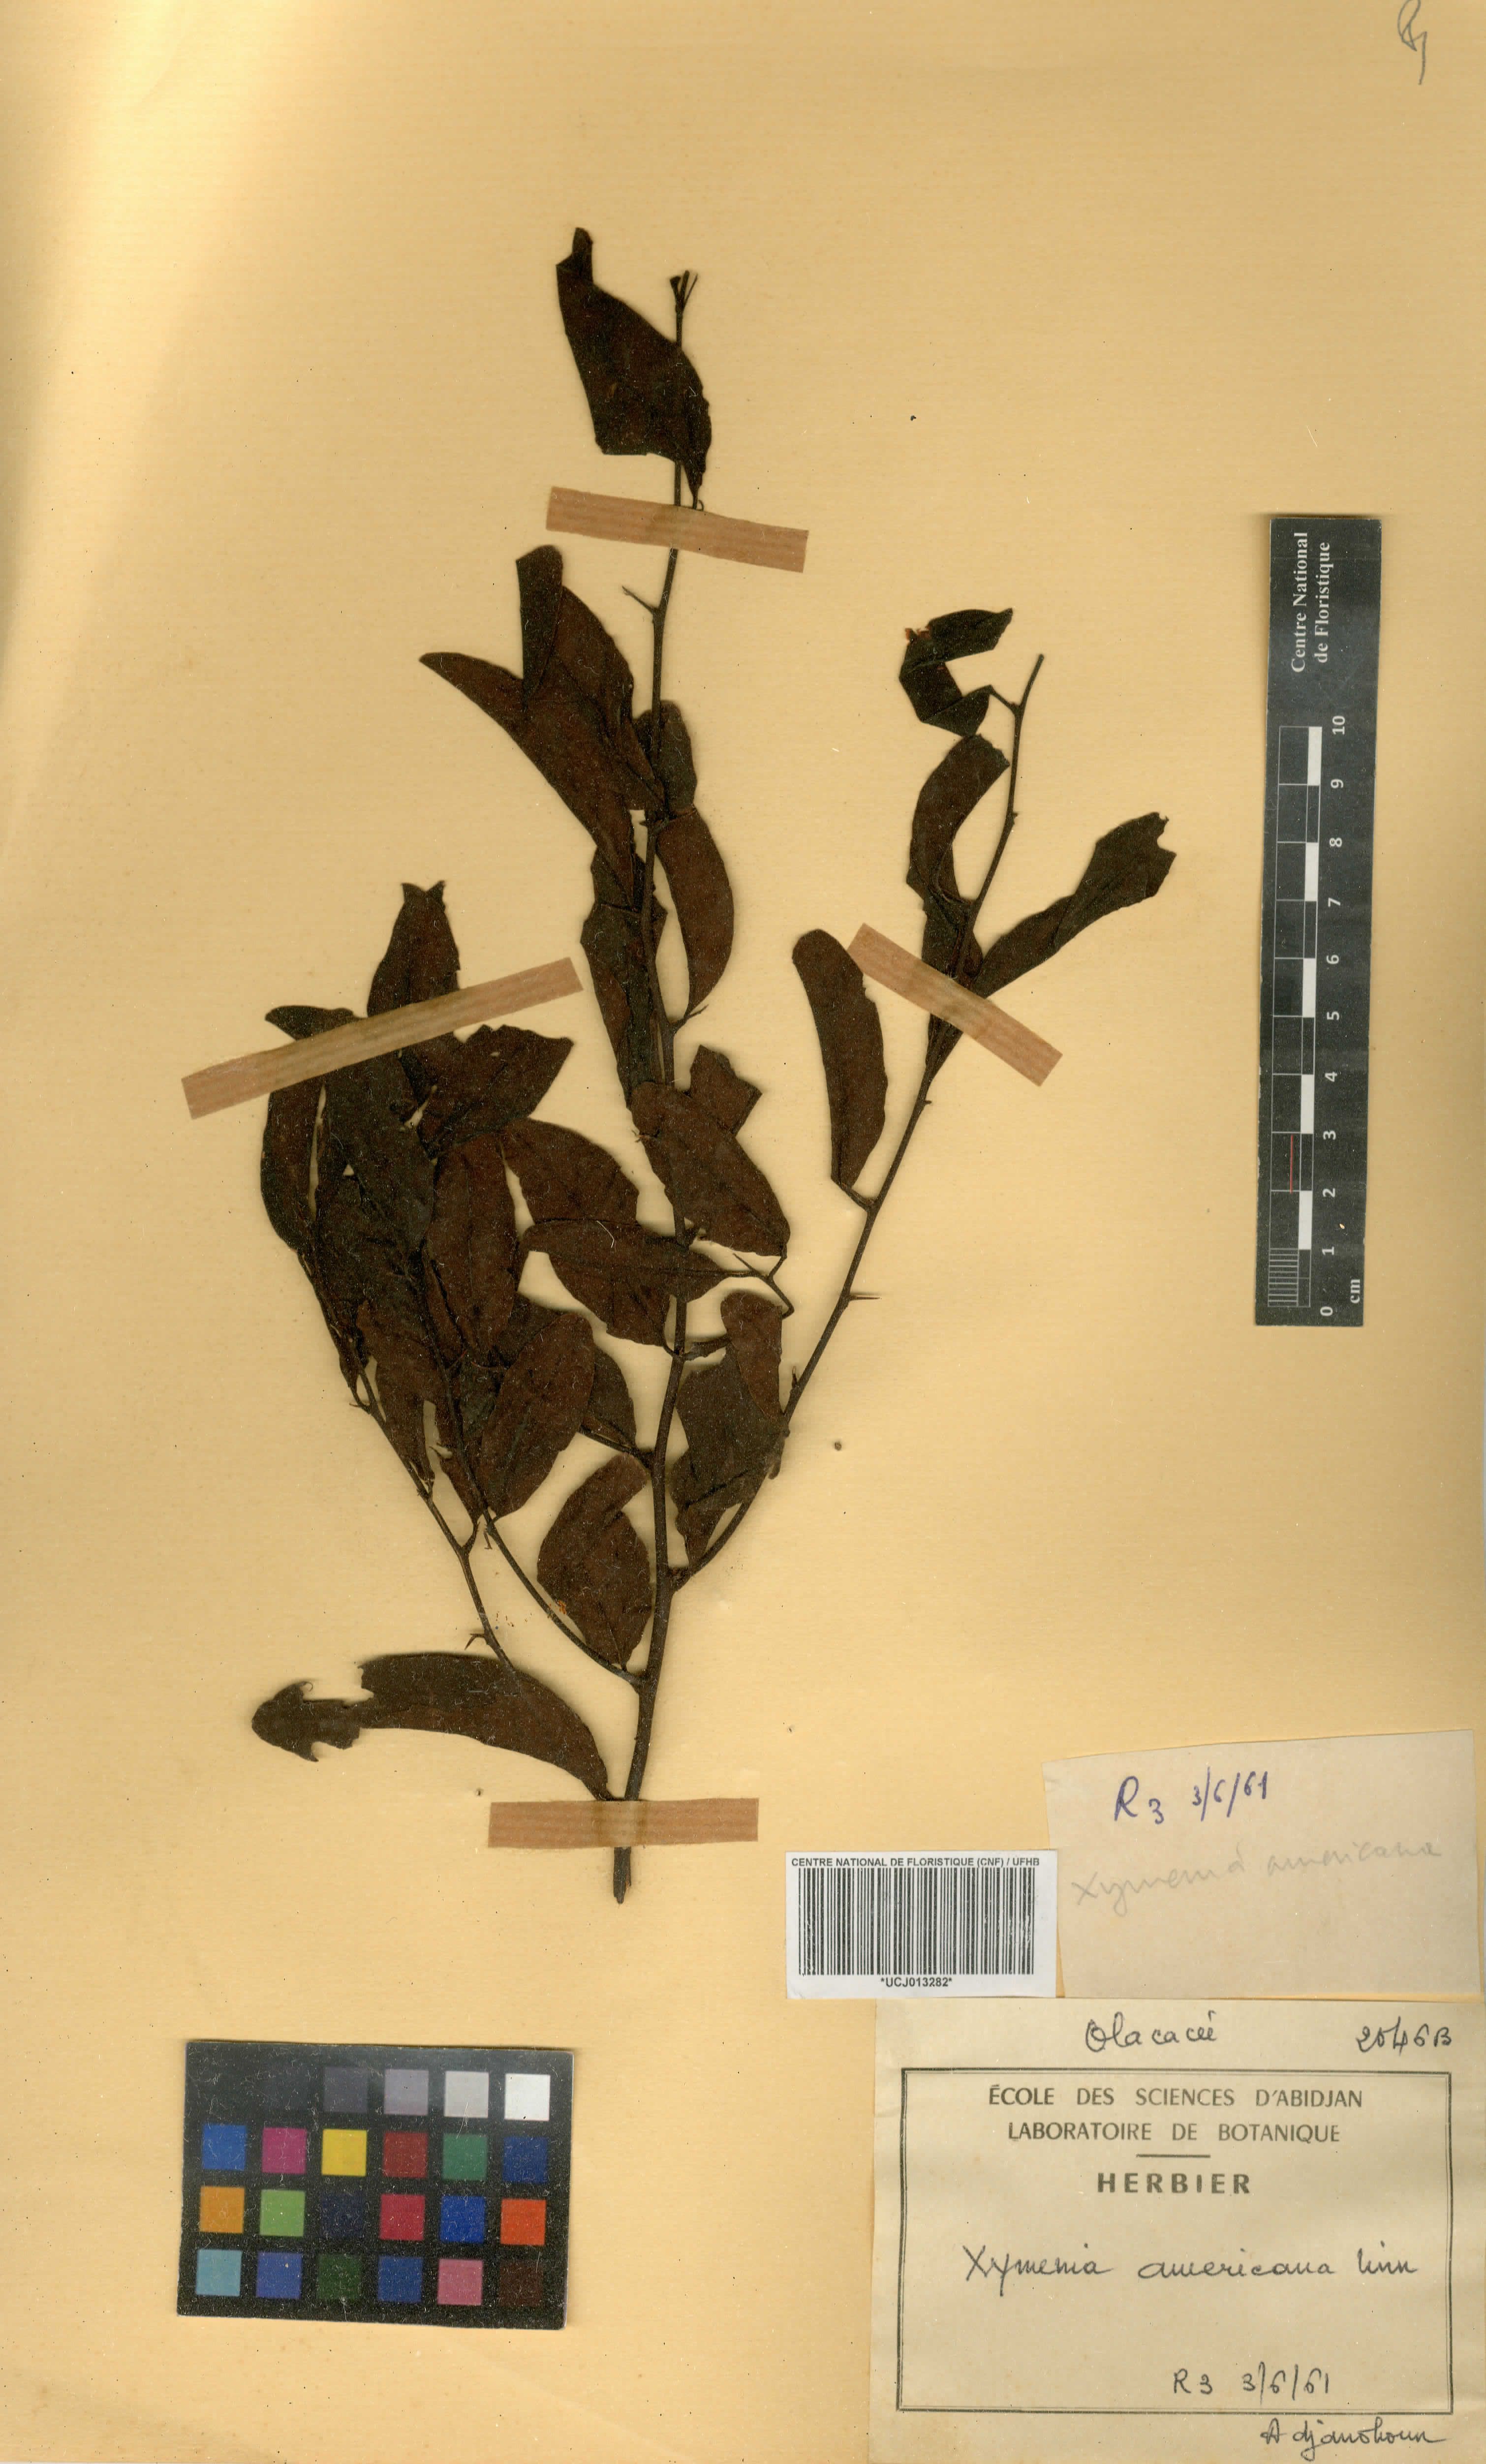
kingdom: Plantae
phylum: Tracheophyta
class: Magnoliopsida
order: Santalales
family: Ximeniaceae
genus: Ximenia
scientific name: Ximenia americana
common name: Tallowwood
